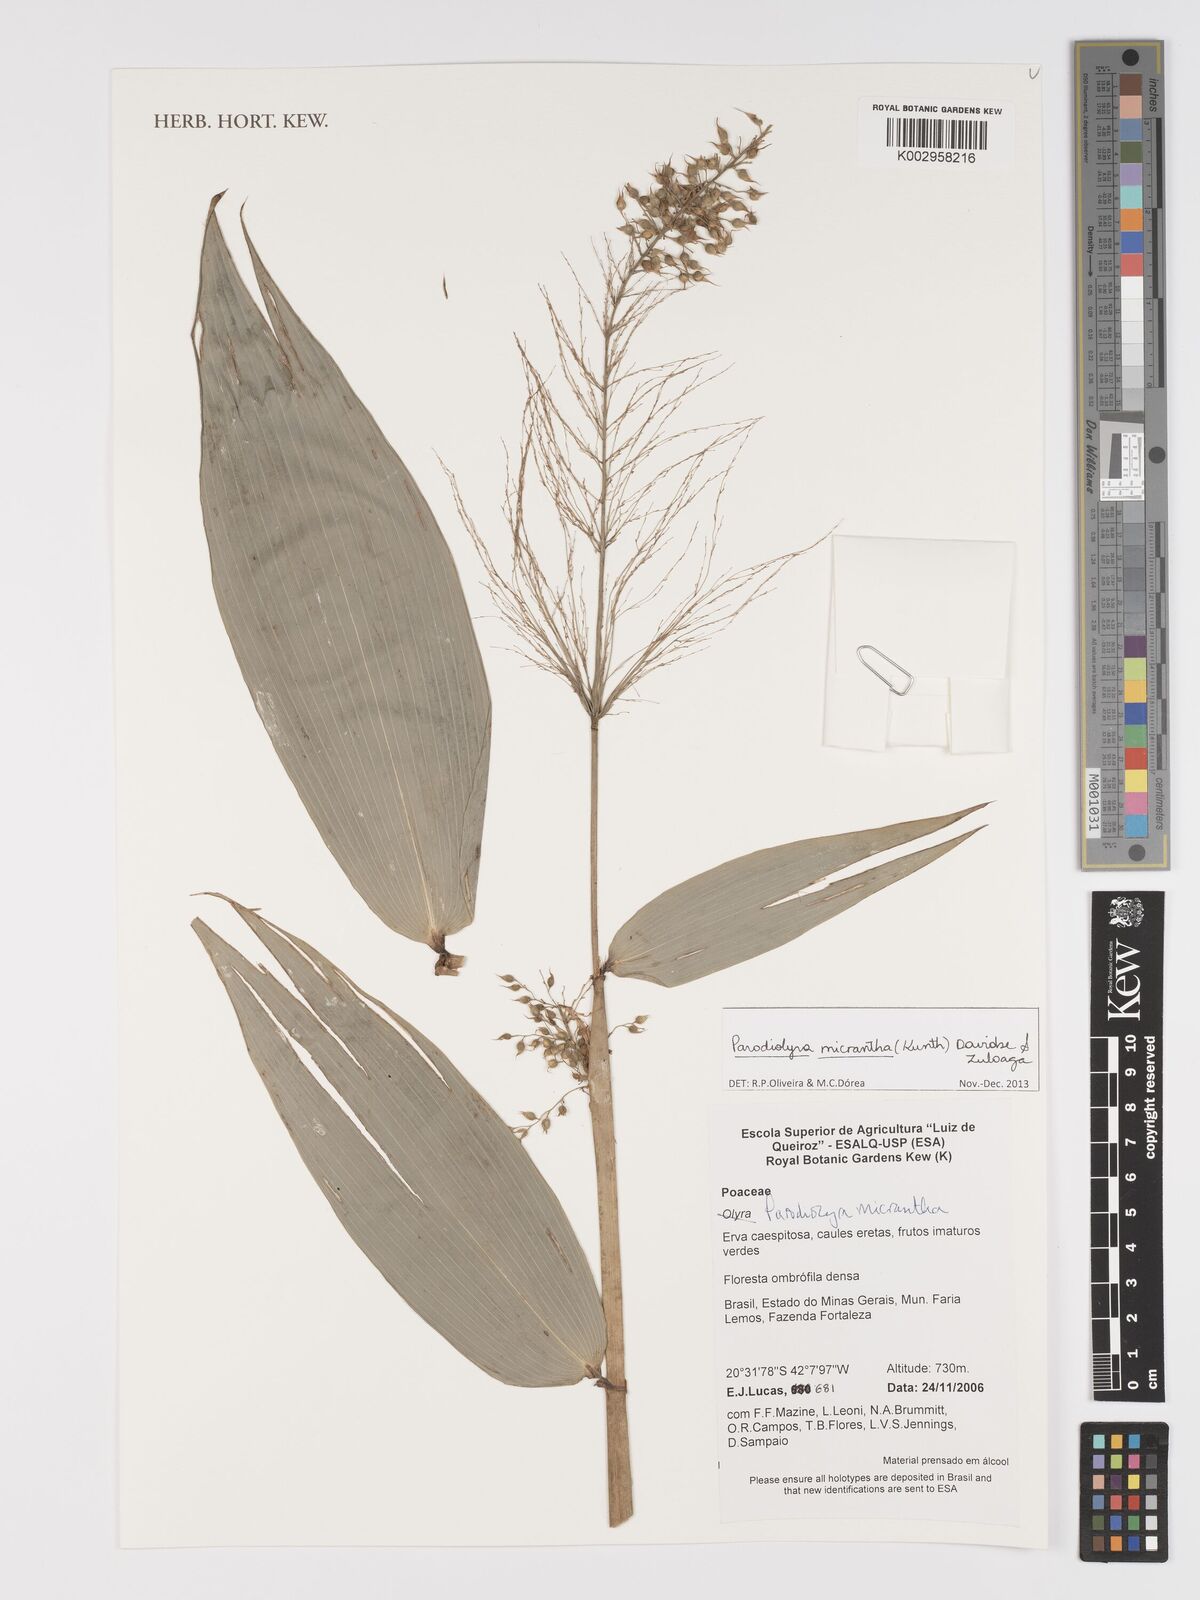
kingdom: Plantae
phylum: Tracheophyta
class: Liliopsida
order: Poales
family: Poaceae
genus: Taquara
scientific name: Taquara micrantha
